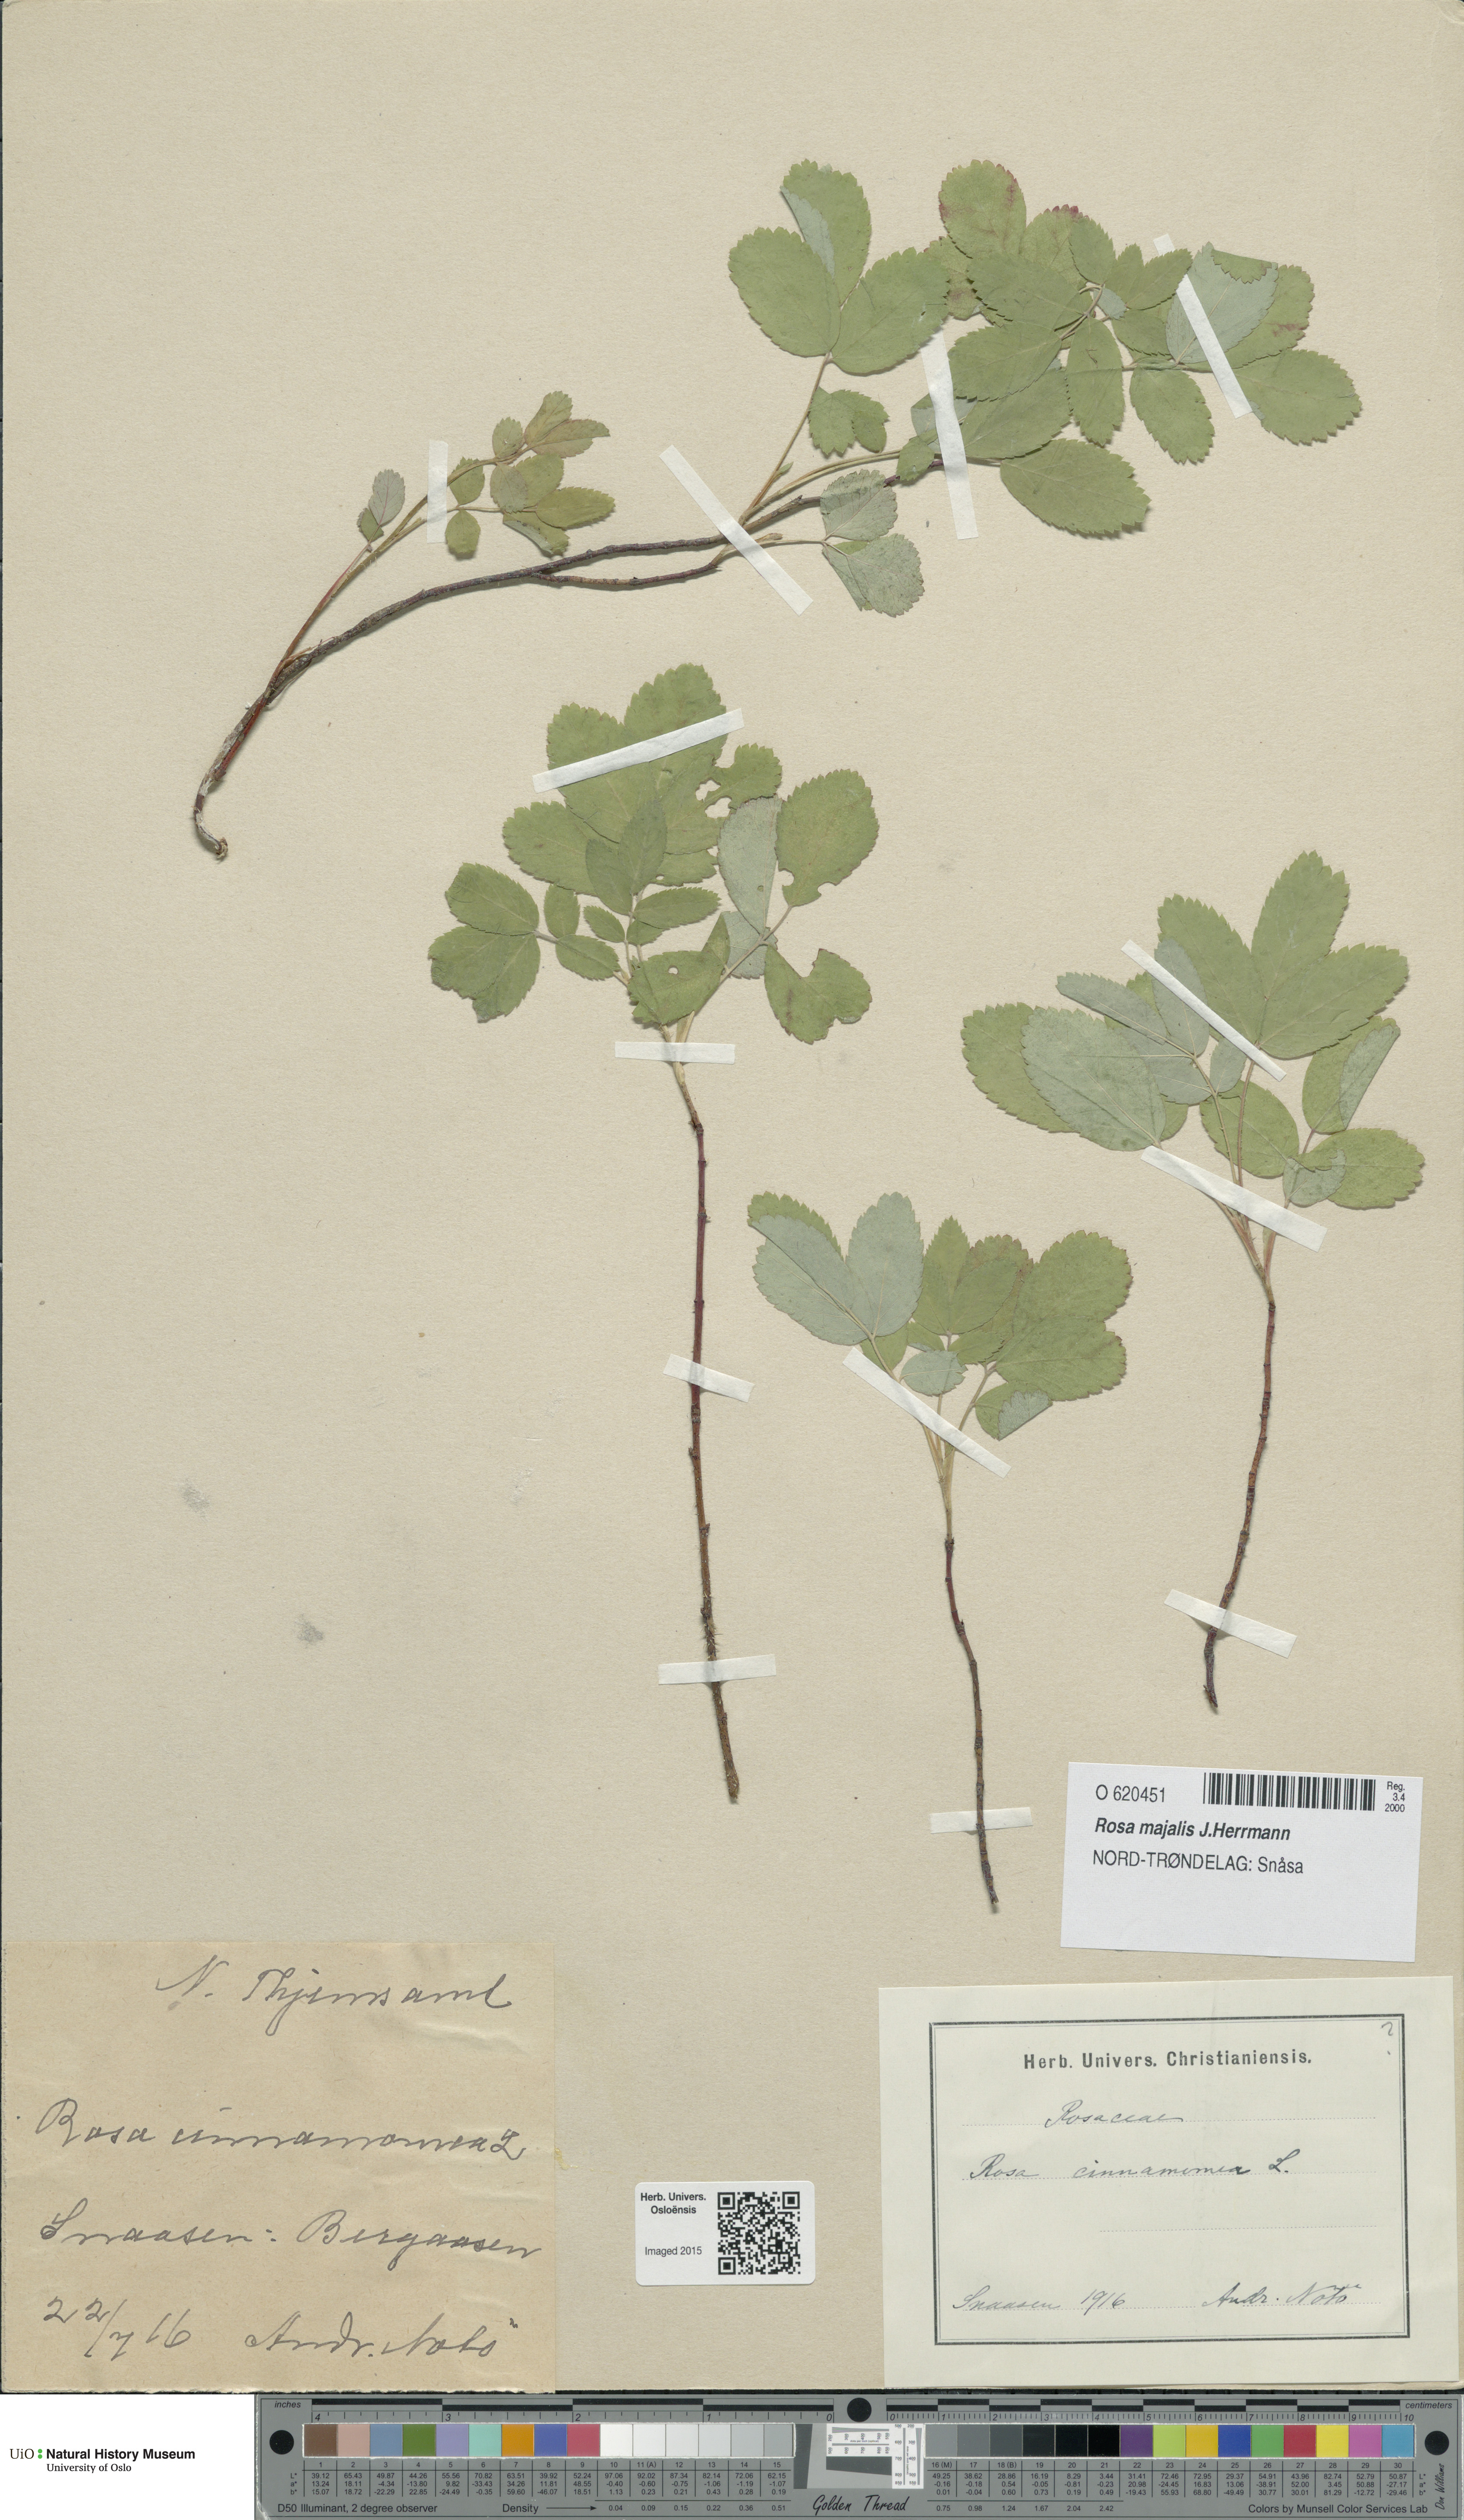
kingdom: Plantae
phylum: Tracheophyta
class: Magnoliopsida
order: Rosales
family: Rosaceae
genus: Rosa
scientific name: Rosa pendulina
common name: Alpine rose
